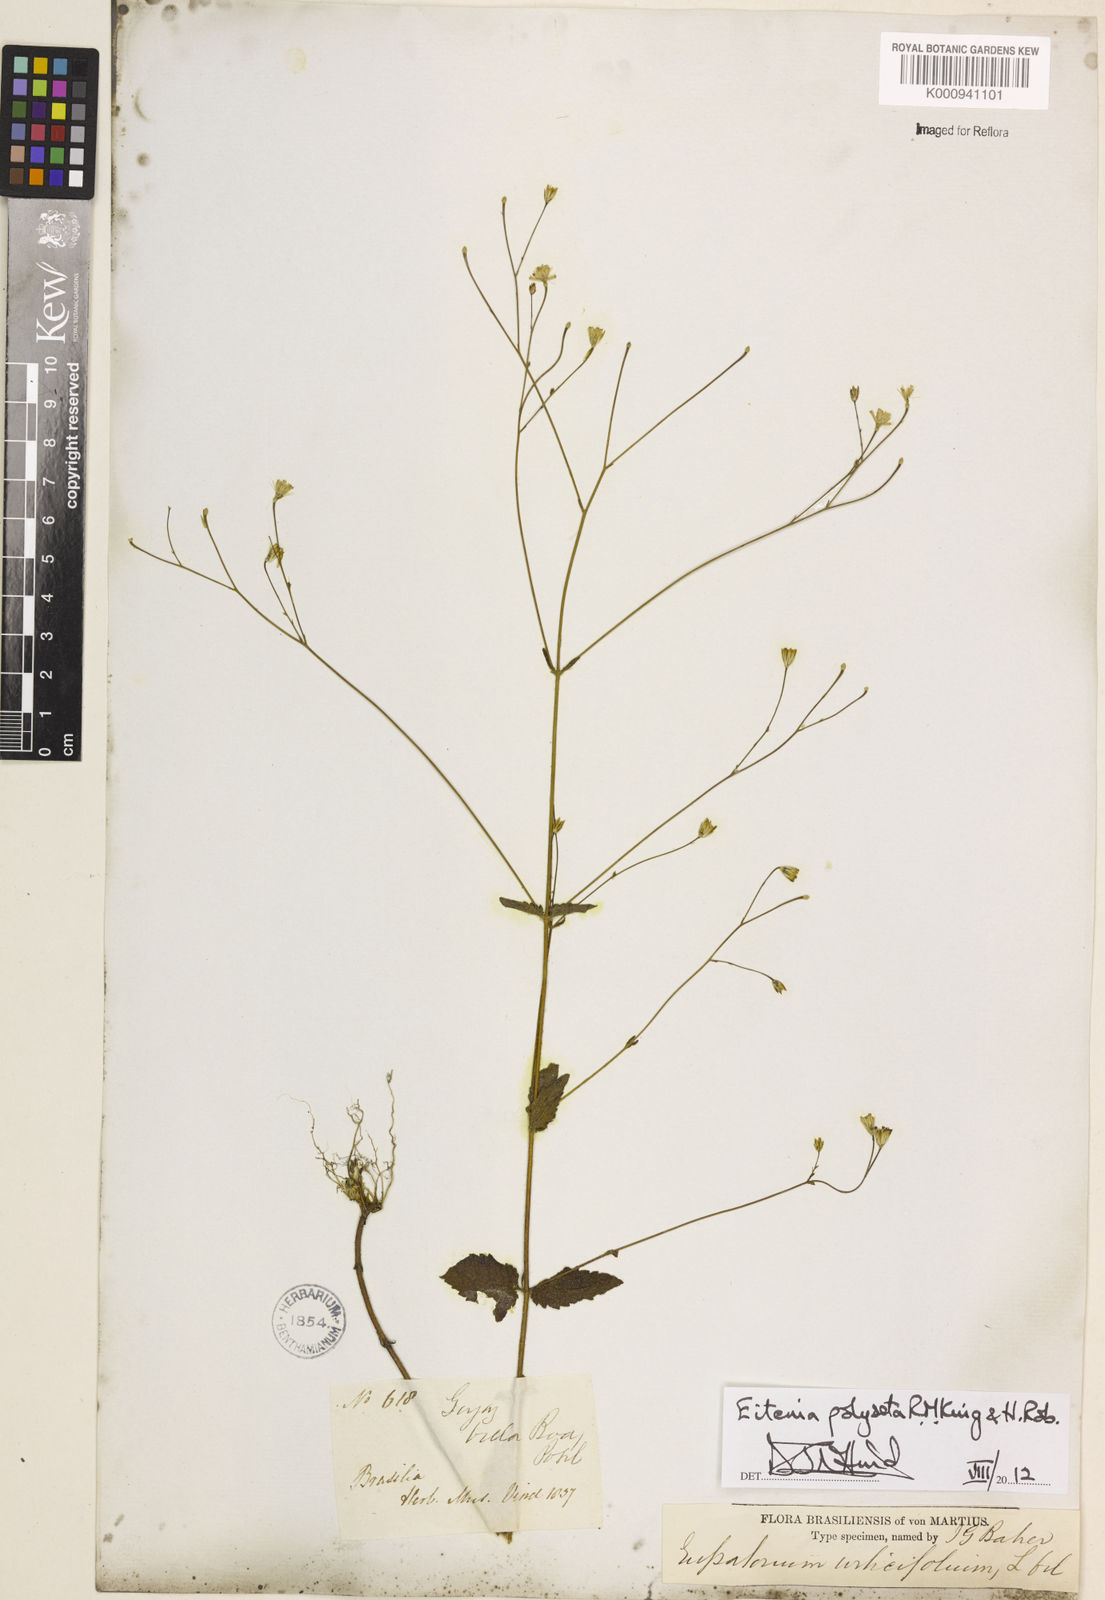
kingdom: Plantae
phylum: Tracheophyta
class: Magnoliopsida
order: Asterales
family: Asteraceae
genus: Eitenia
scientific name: Eitenia polyseta
